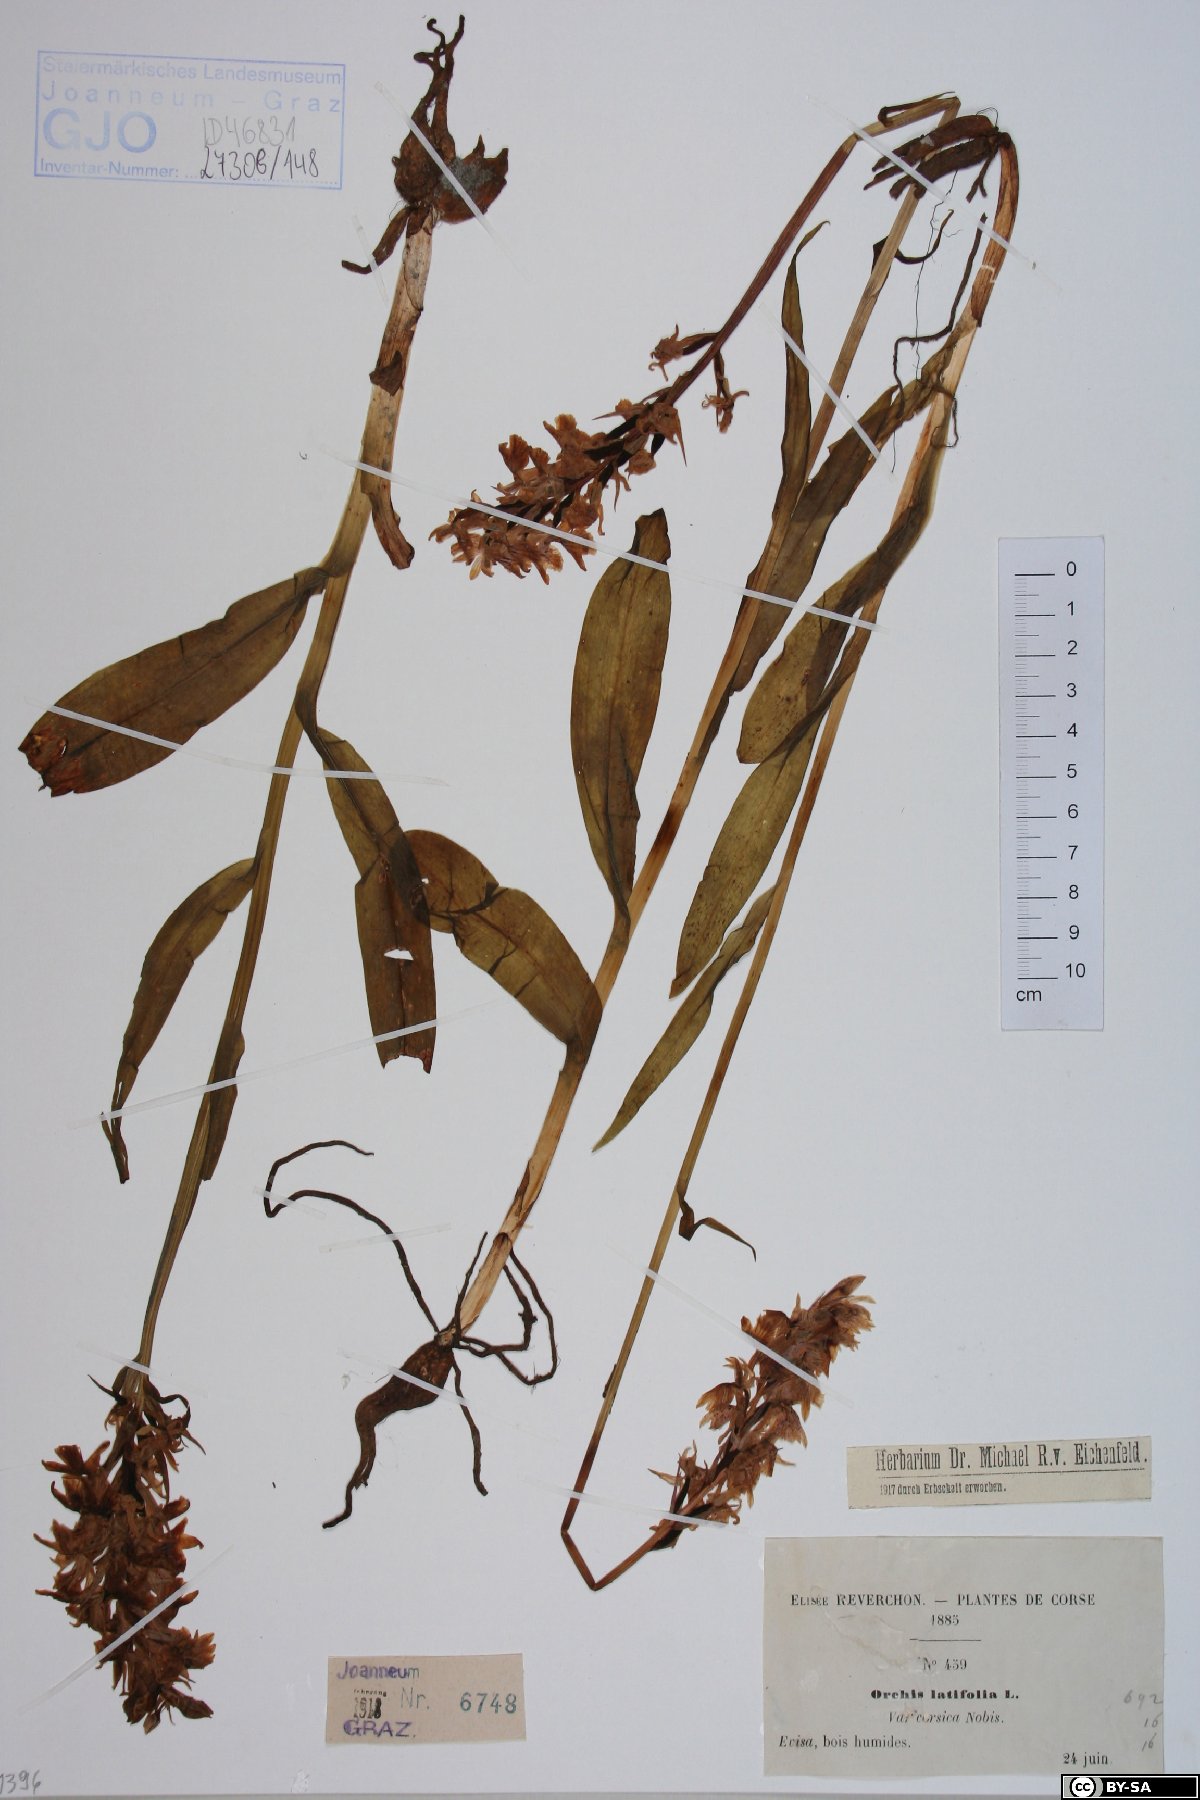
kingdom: Plantae
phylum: Tracheophyta
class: Liliopsida
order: Asparagales
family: Orchidaceae
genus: Dactylorhiza
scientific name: Dactylorhiza incarnata
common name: Early marsh-orchid
